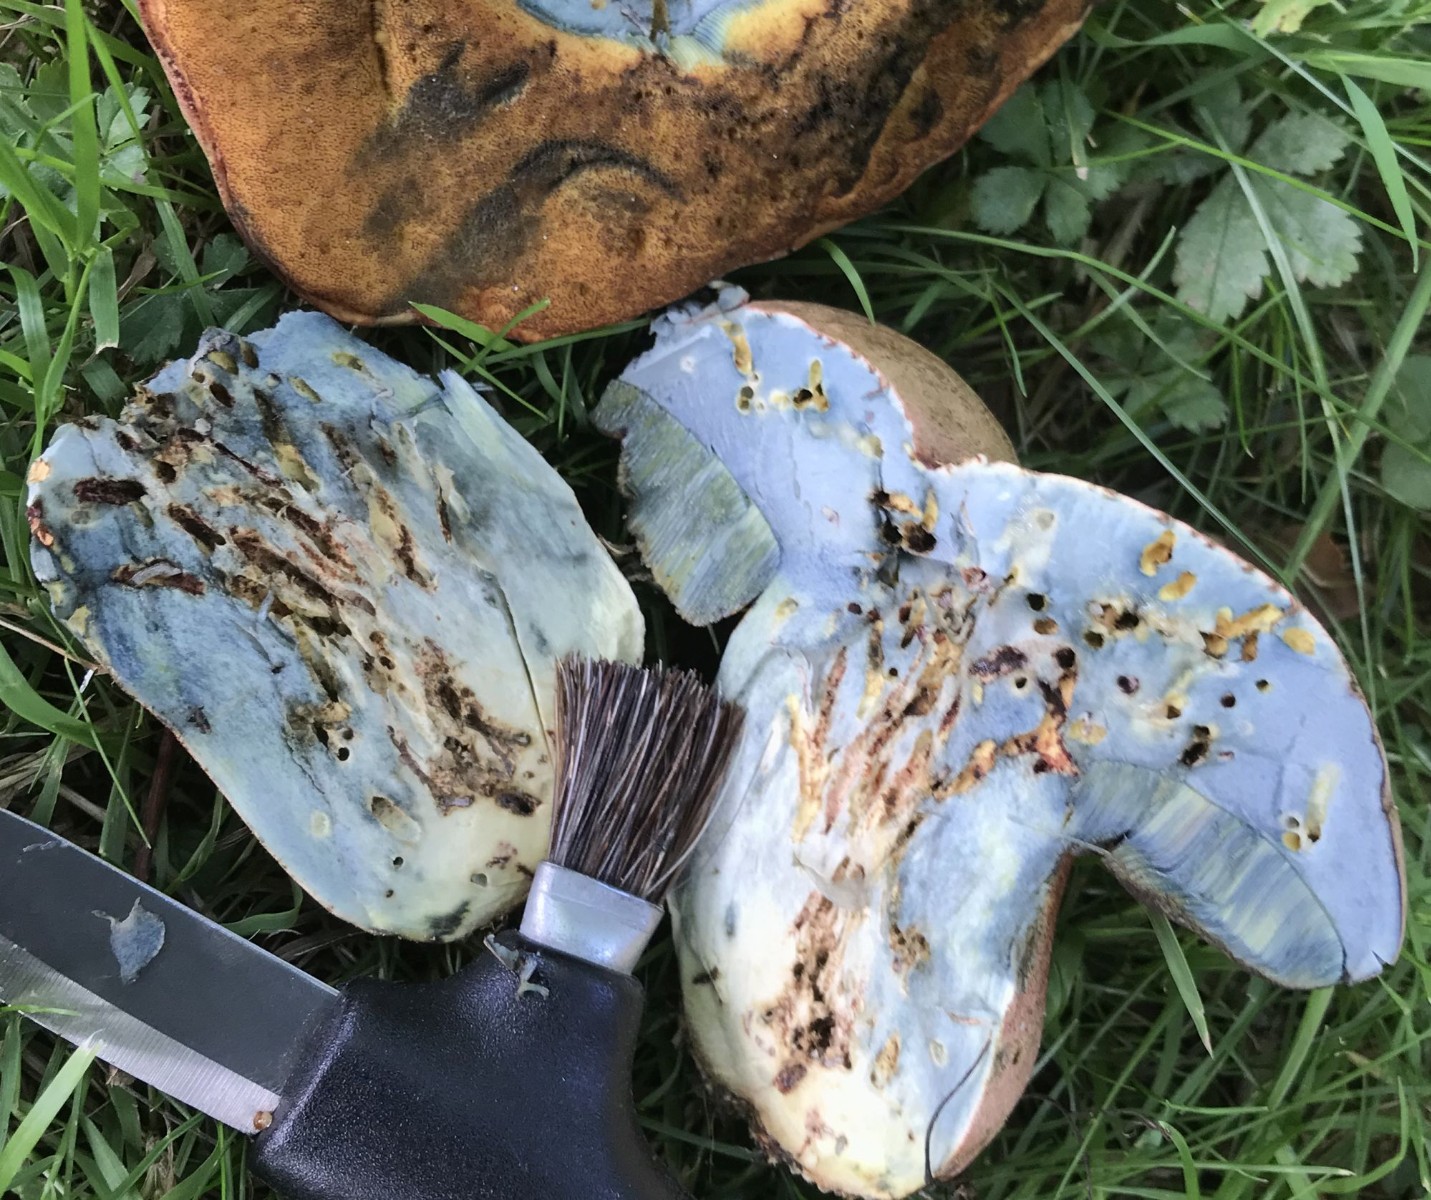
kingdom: Fungi
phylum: Basidiomycota
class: Agaricomycetes
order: Boletales
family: Boletaceae
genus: Rubroboletus
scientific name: Rubroboletus legaliae
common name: djævle-rørhat
